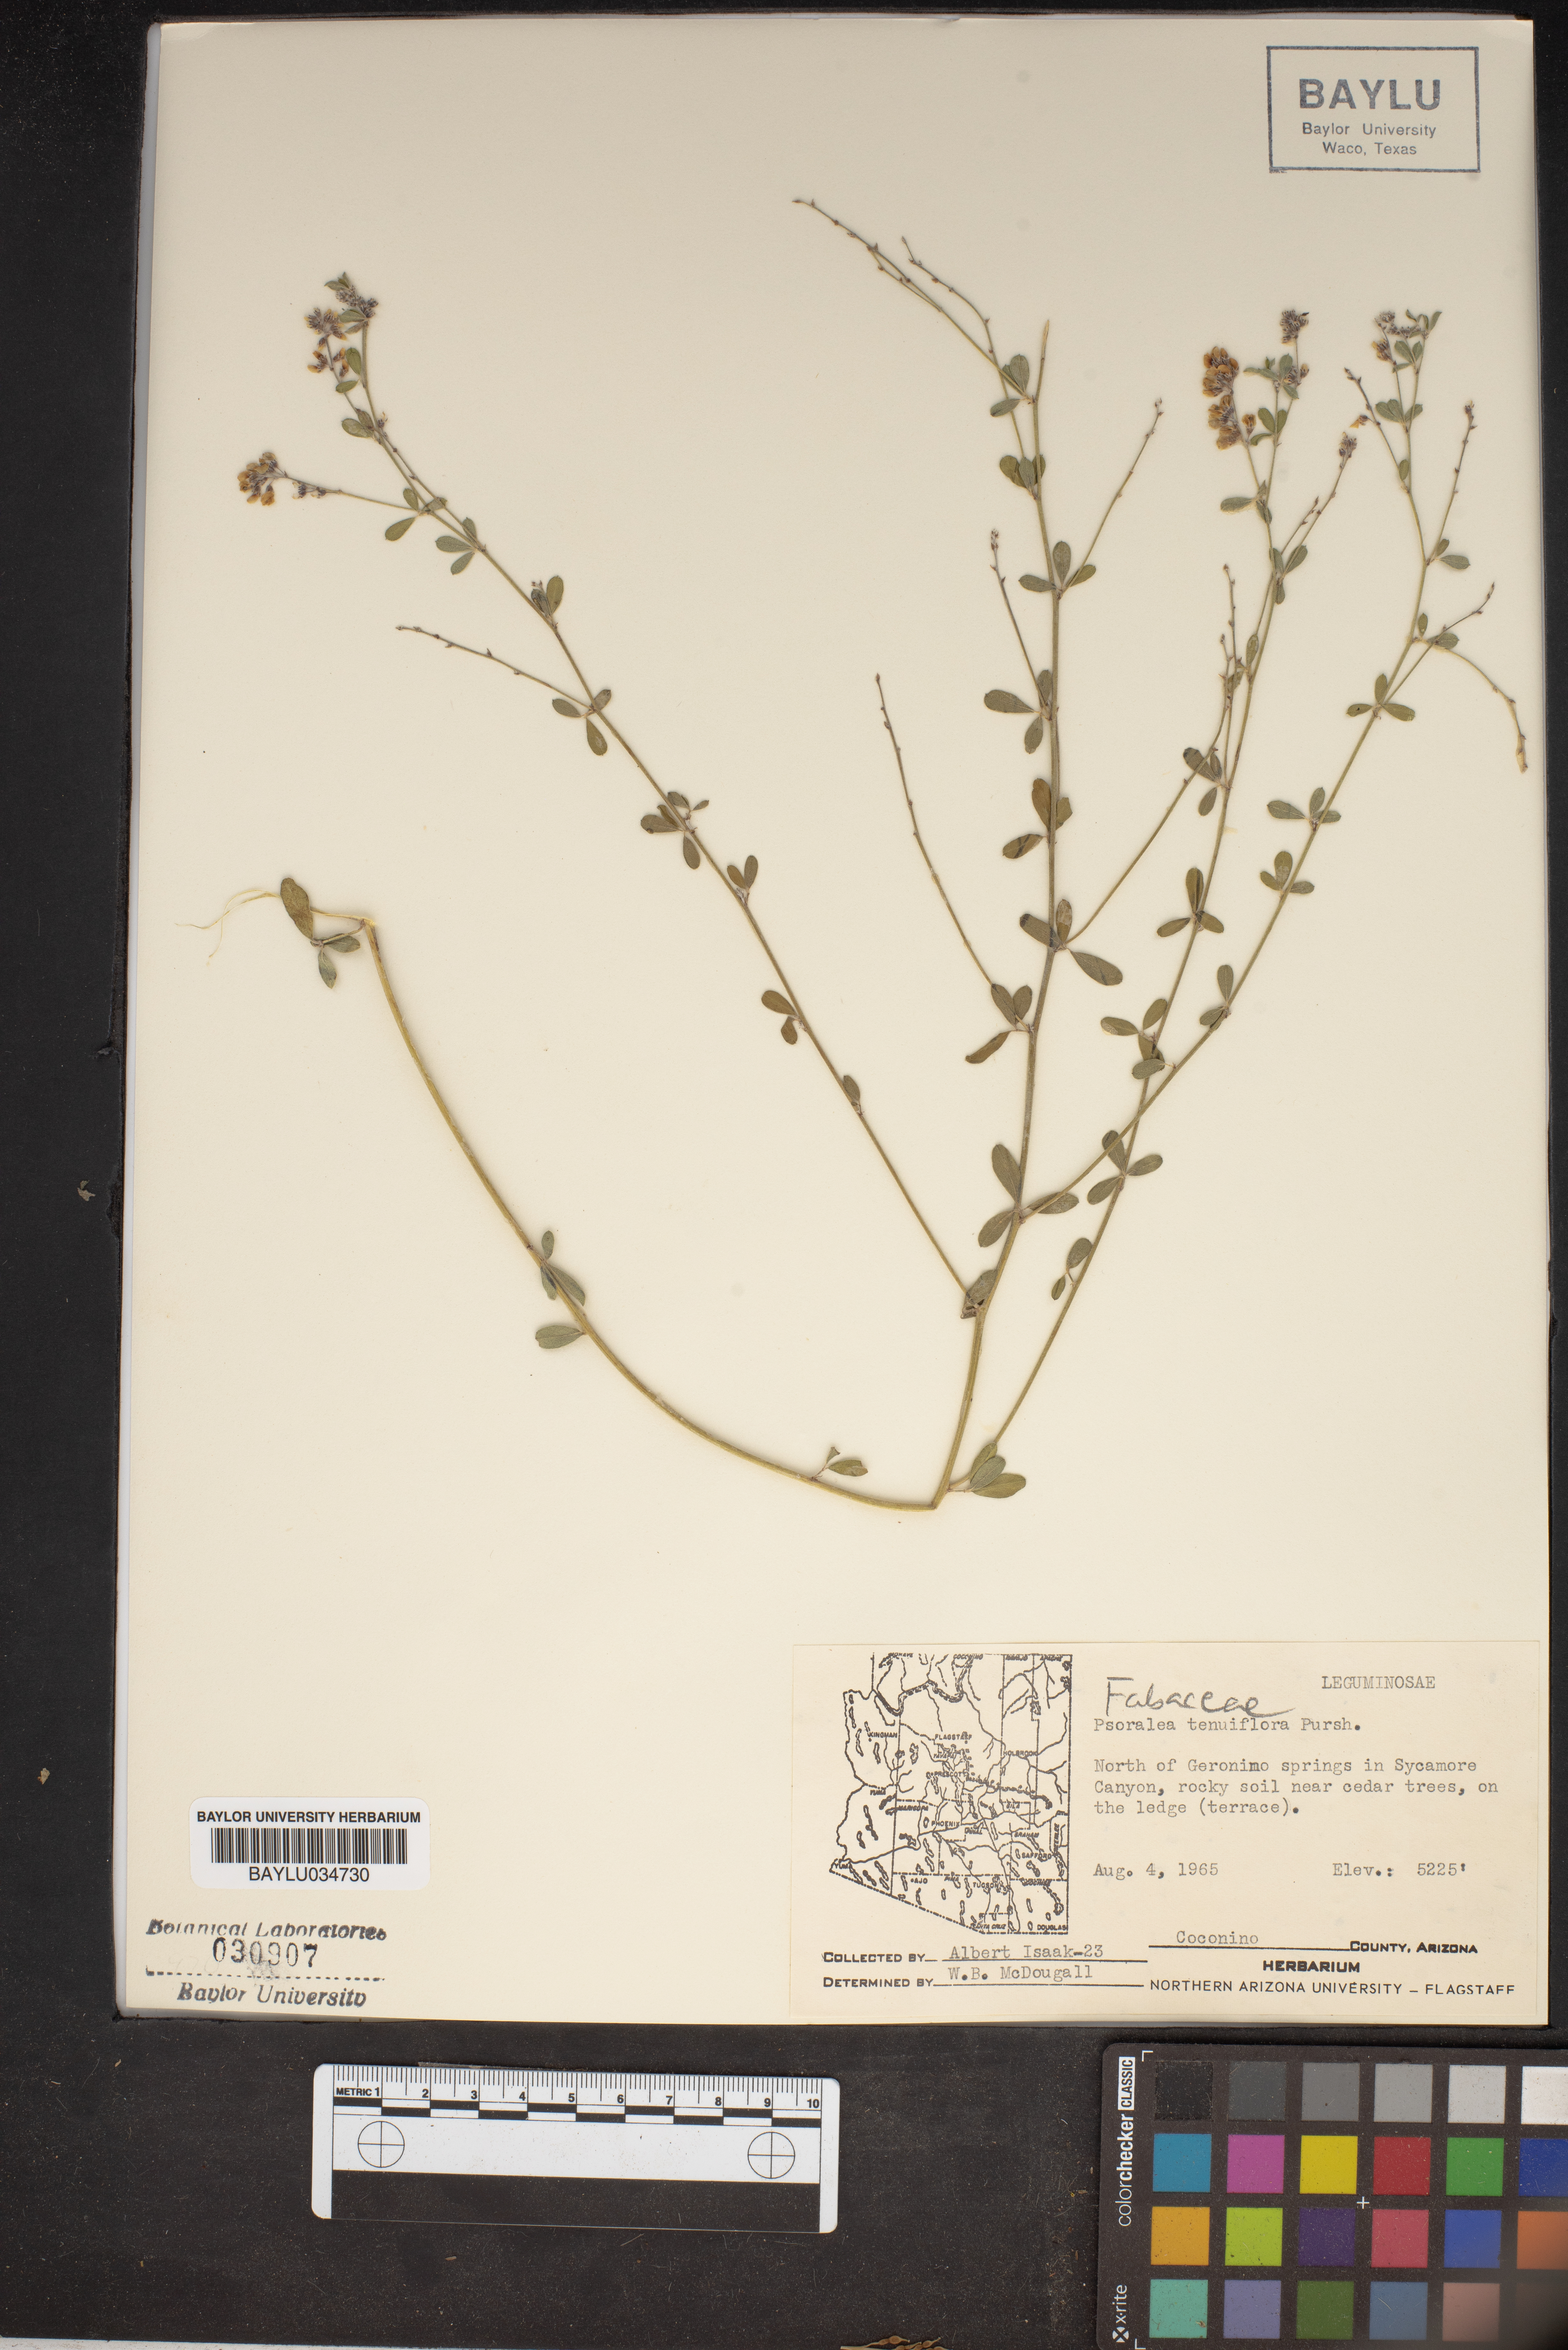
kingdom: Plantae
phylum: Tracheophyta
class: Magnoliopsida
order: Fabales
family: Fabaceae
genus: Pediomelum
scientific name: Pediomelum tenuiflorum
